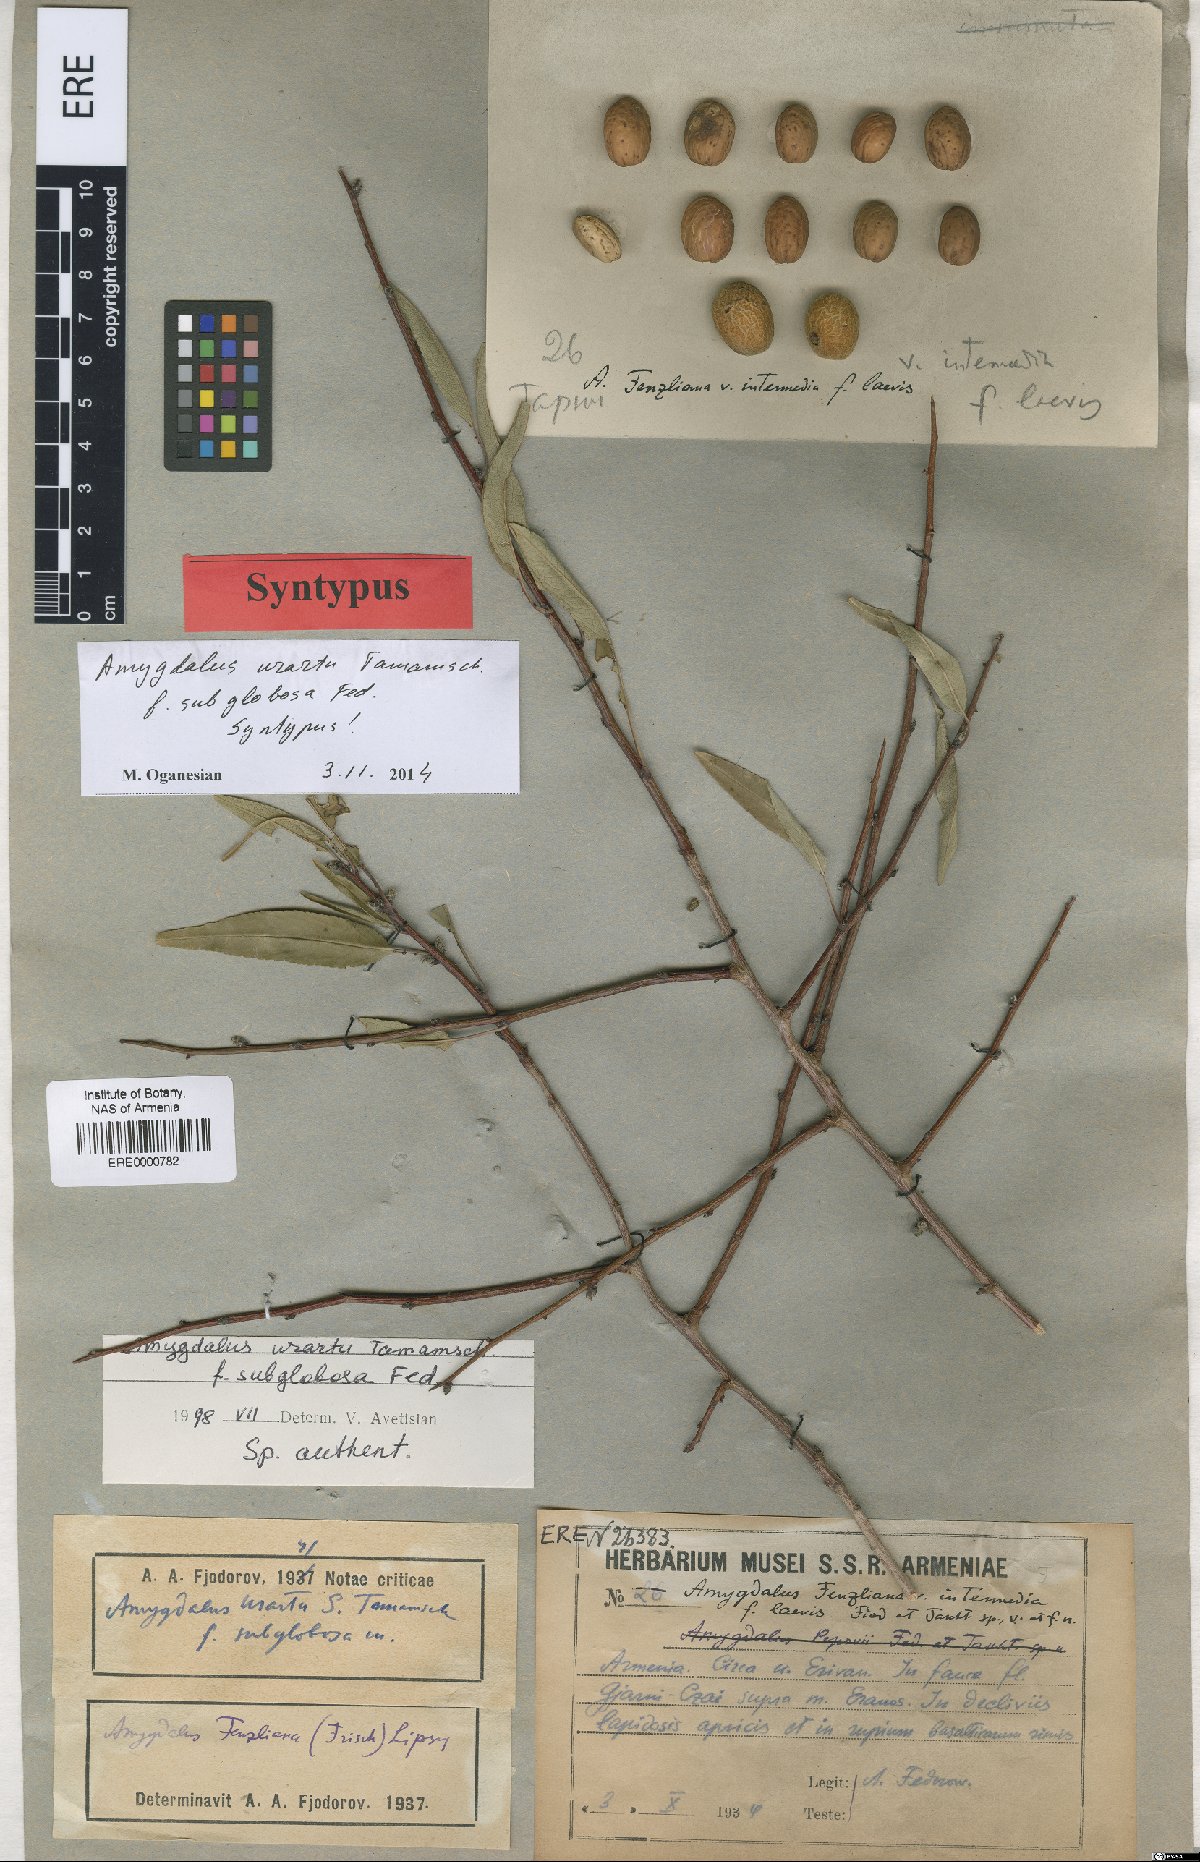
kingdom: Plantae
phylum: Tracheophyta
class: Magnoliopsida
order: Rosales
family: Rosaceae
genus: Prunus
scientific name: Prunus urartu
